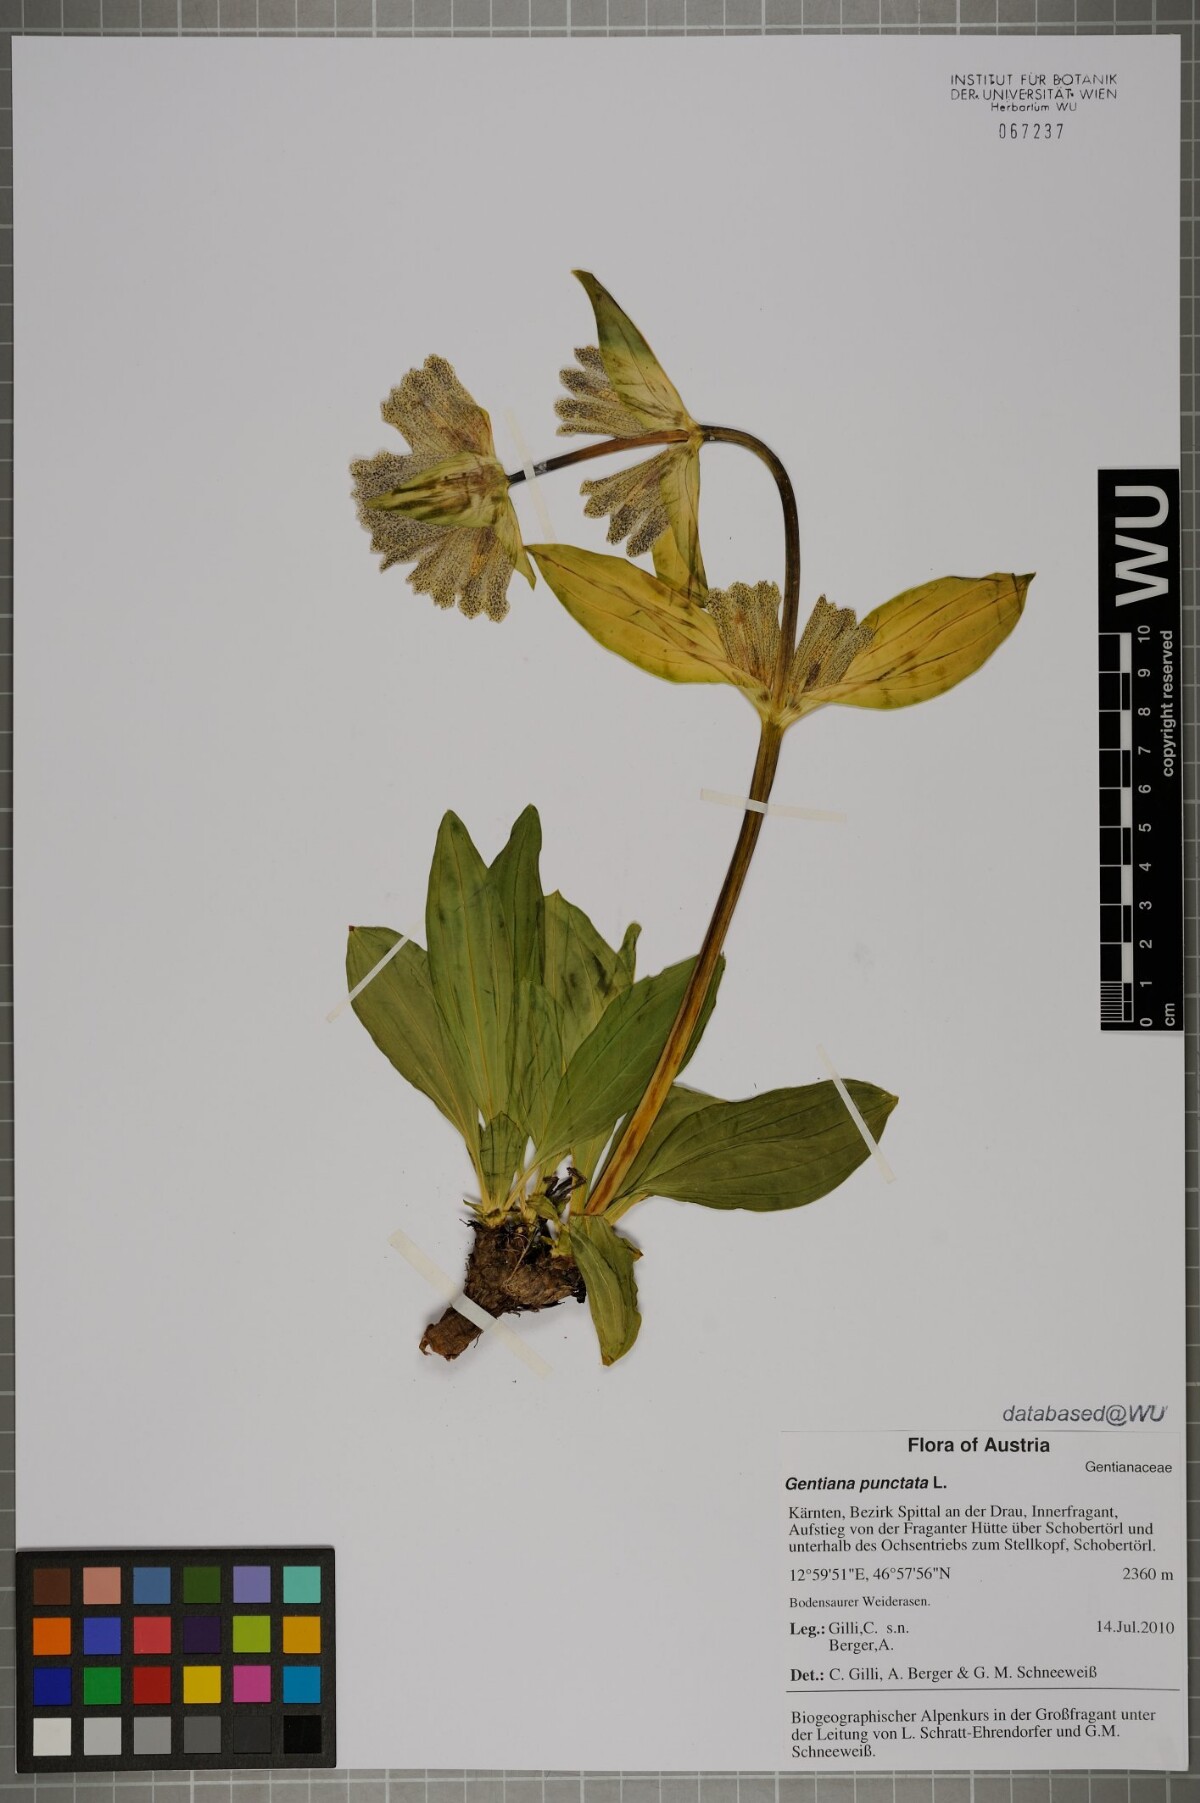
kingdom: Plantae
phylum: Tracheophyta
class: Magnoliopsida
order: Gentianales
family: Gentianaceae
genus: Gentiana
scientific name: Gentiana punctata
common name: Spotted gentian
